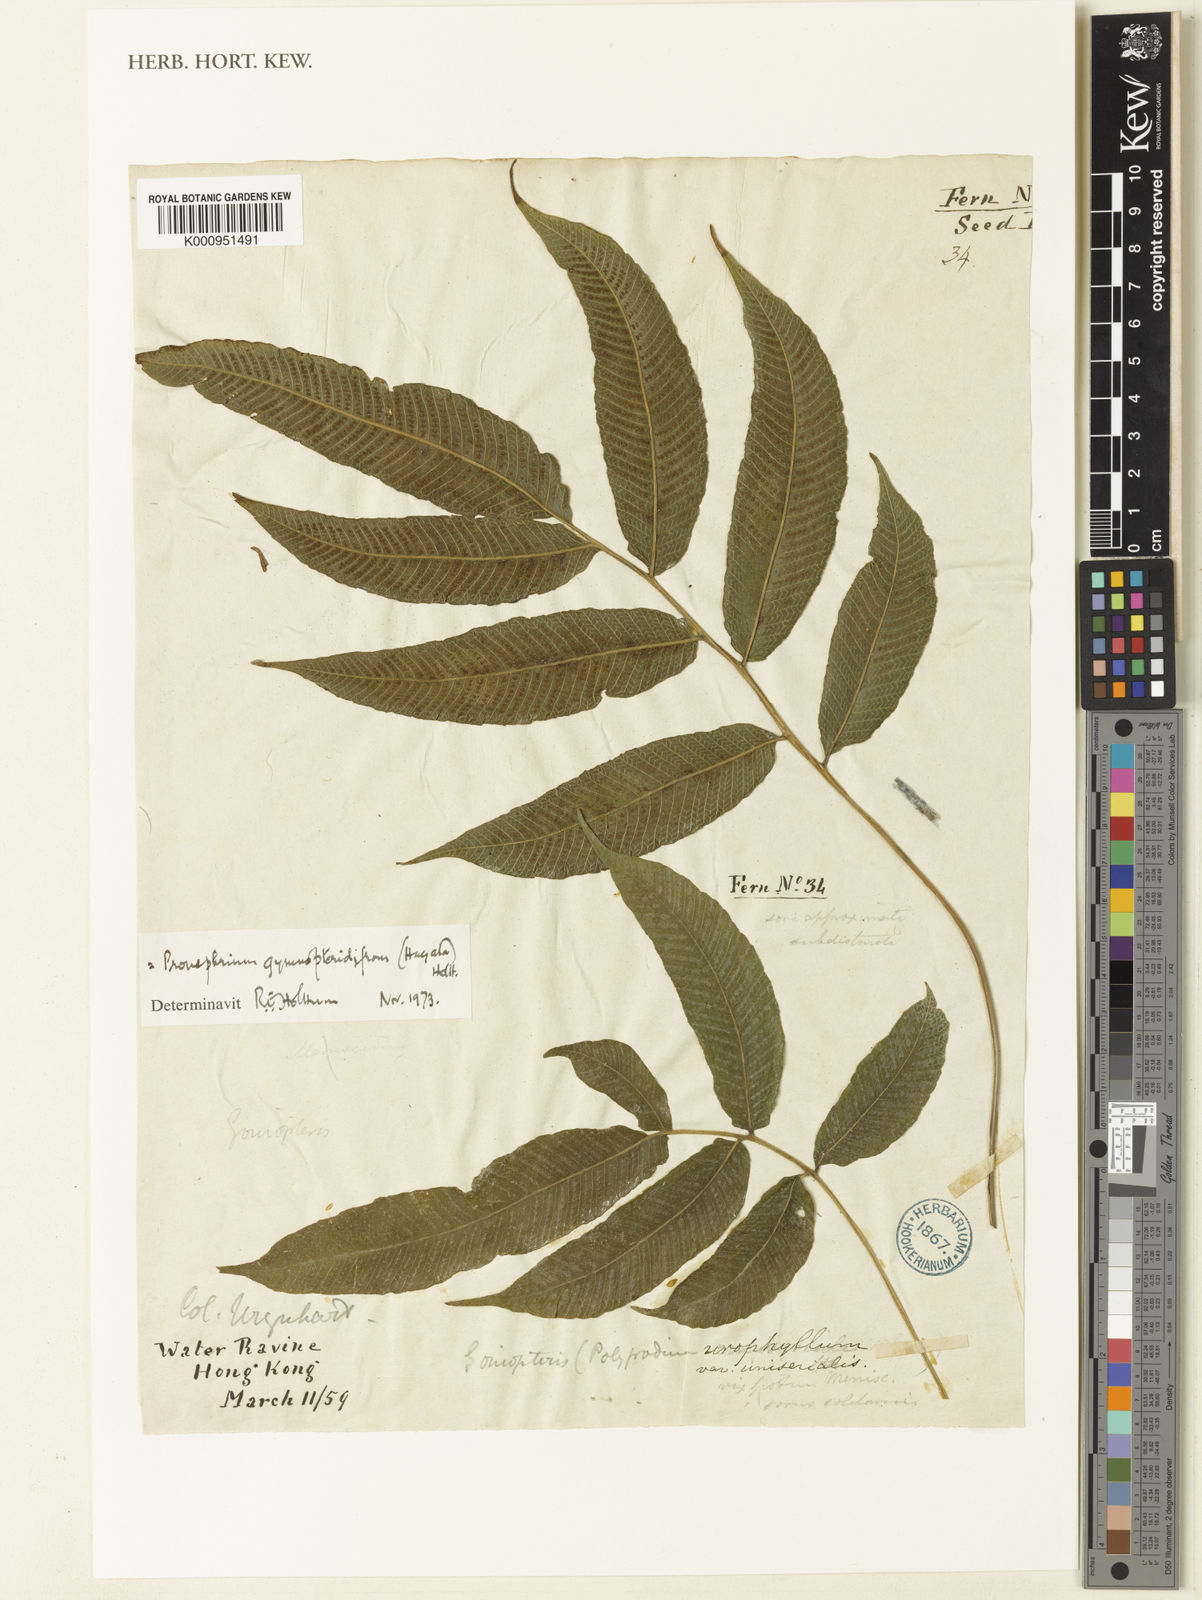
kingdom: Plantae
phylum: Tracheophyta
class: Polypodiopsida
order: Polypodiales
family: Thelypteridaceae
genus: Abacopteris
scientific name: Abacopteris gymnopteridifrons
